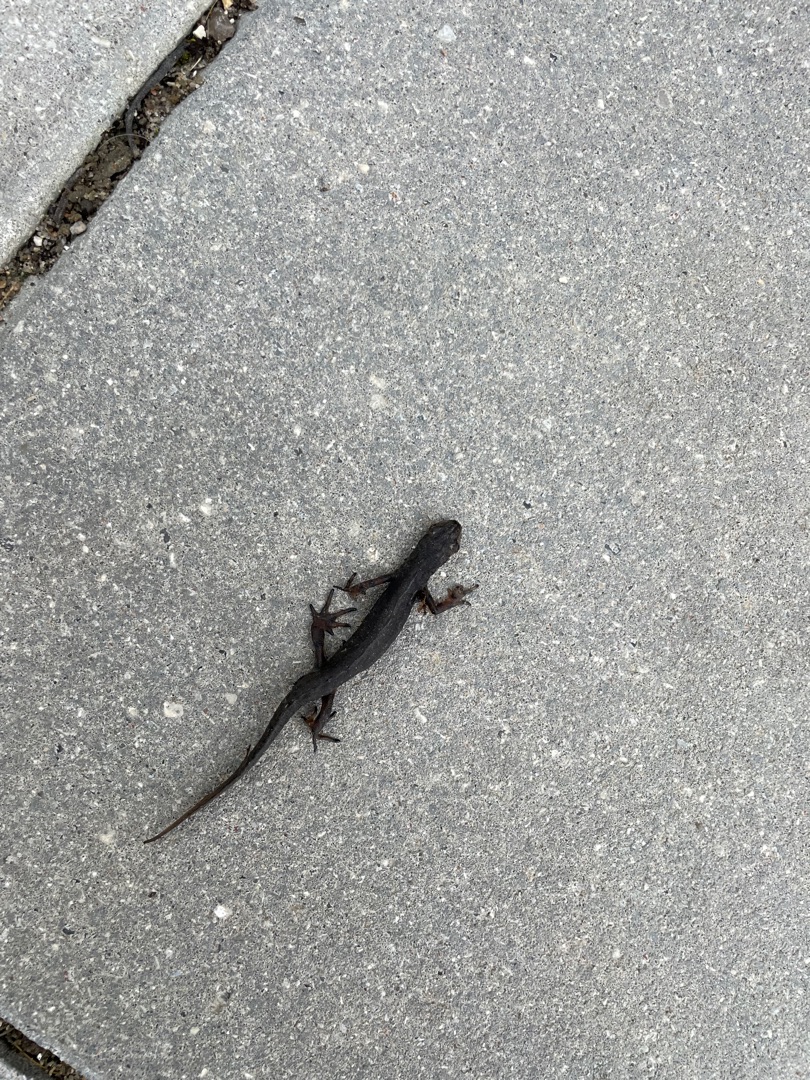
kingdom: Animalia
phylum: Chordata
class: Amphibia
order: Caudata
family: Salamandridae
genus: Lissotriton
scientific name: Lissotriton vulgaris
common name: Lille vandsalamander
